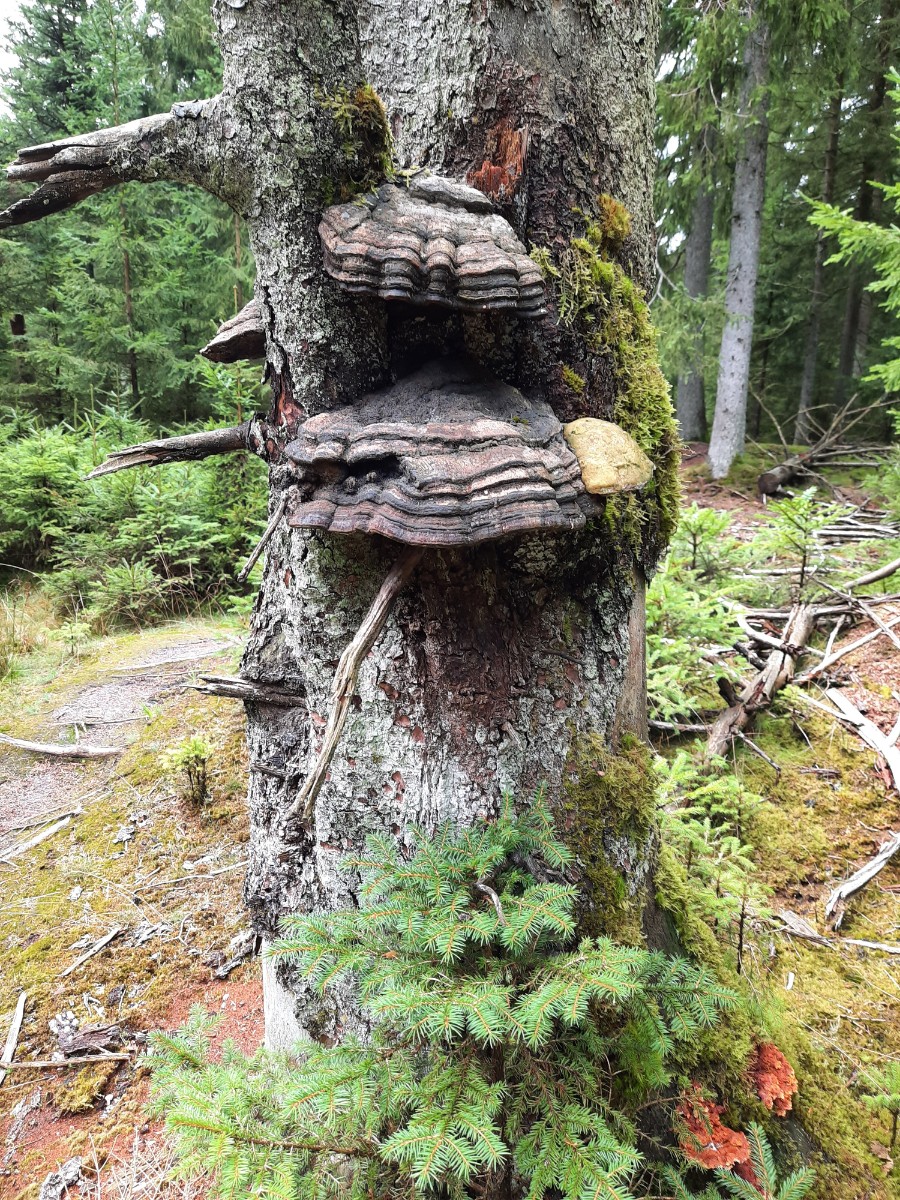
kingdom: Fungi
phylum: Basidiomycota
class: Agaricomycetes
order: Polyporales
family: Fomitopsidaceae
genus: Fomitopsis
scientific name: Fomitopsis pinicola
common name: randbæltet hovporesvamp
